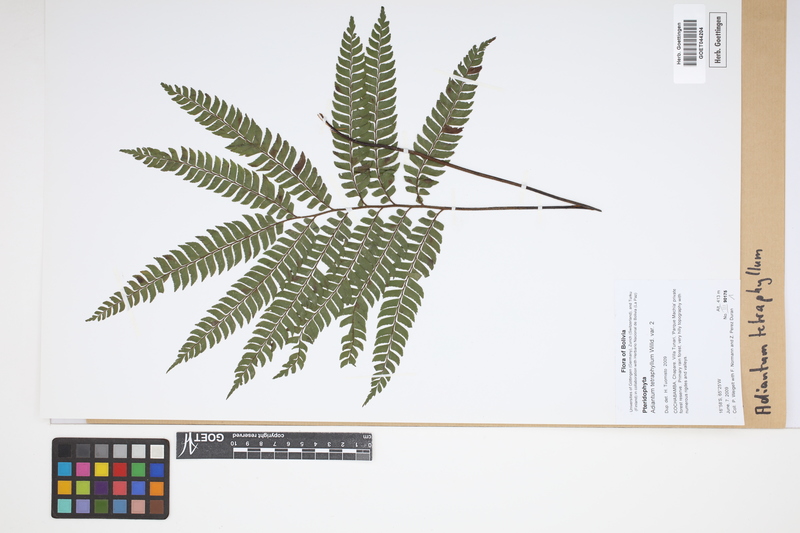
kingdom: Plantae
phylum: Tracheophyta
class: Polypodiopsida
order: Polypodiales
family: Pteridaceae
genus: Adiantum
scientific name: Adiantum tetraphyllum
